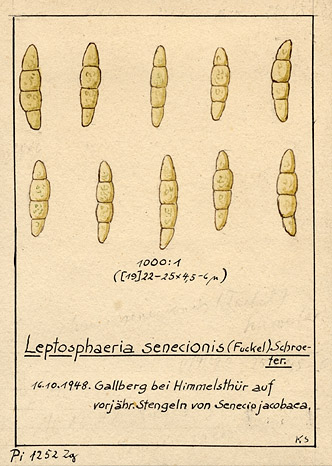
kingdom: Fungi
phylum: Ascomycota
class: Dothideomycetes
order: Dothideales
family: Saccotheciaceae
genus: Metasphaeria
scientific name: Metasphaeria senecionis
